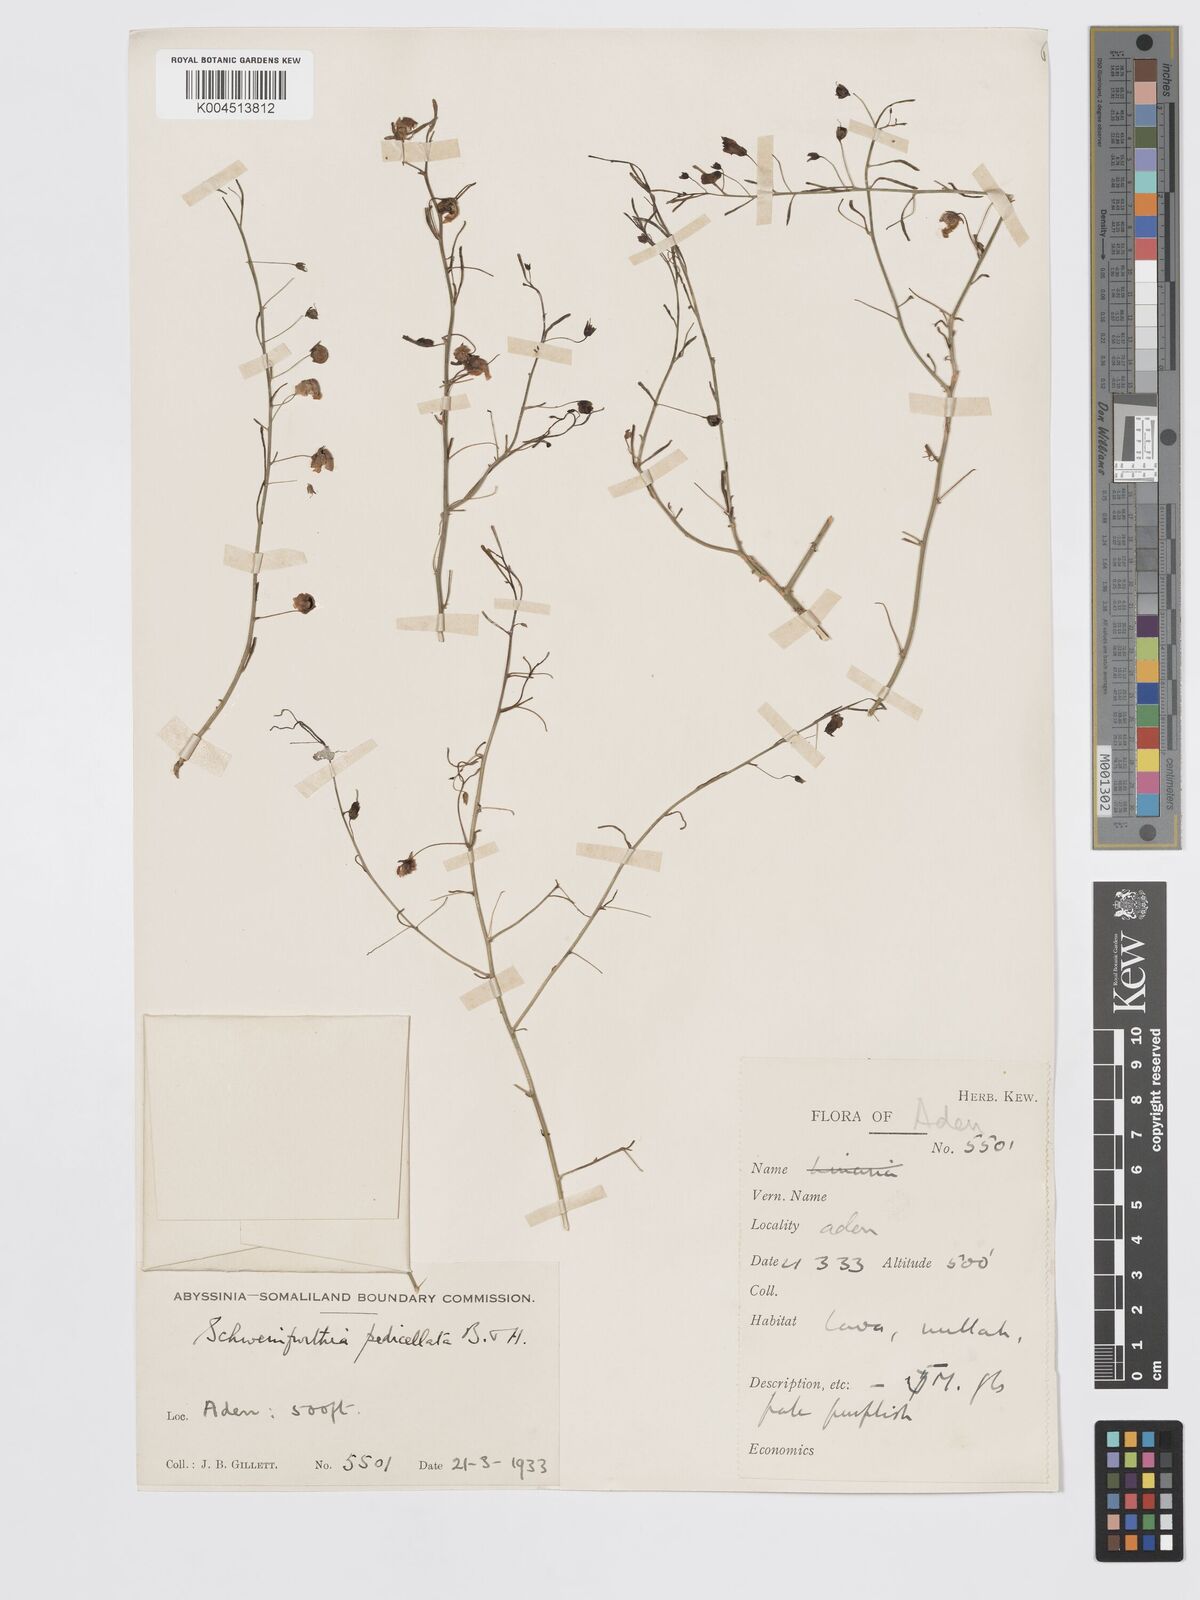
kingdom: Plantae
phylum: Tracheophyta
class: Magnoliopsida
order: Lamiales
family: Plantaginaceae
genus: Schweinfurthia
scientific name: Schweinfurthia pedicellata
